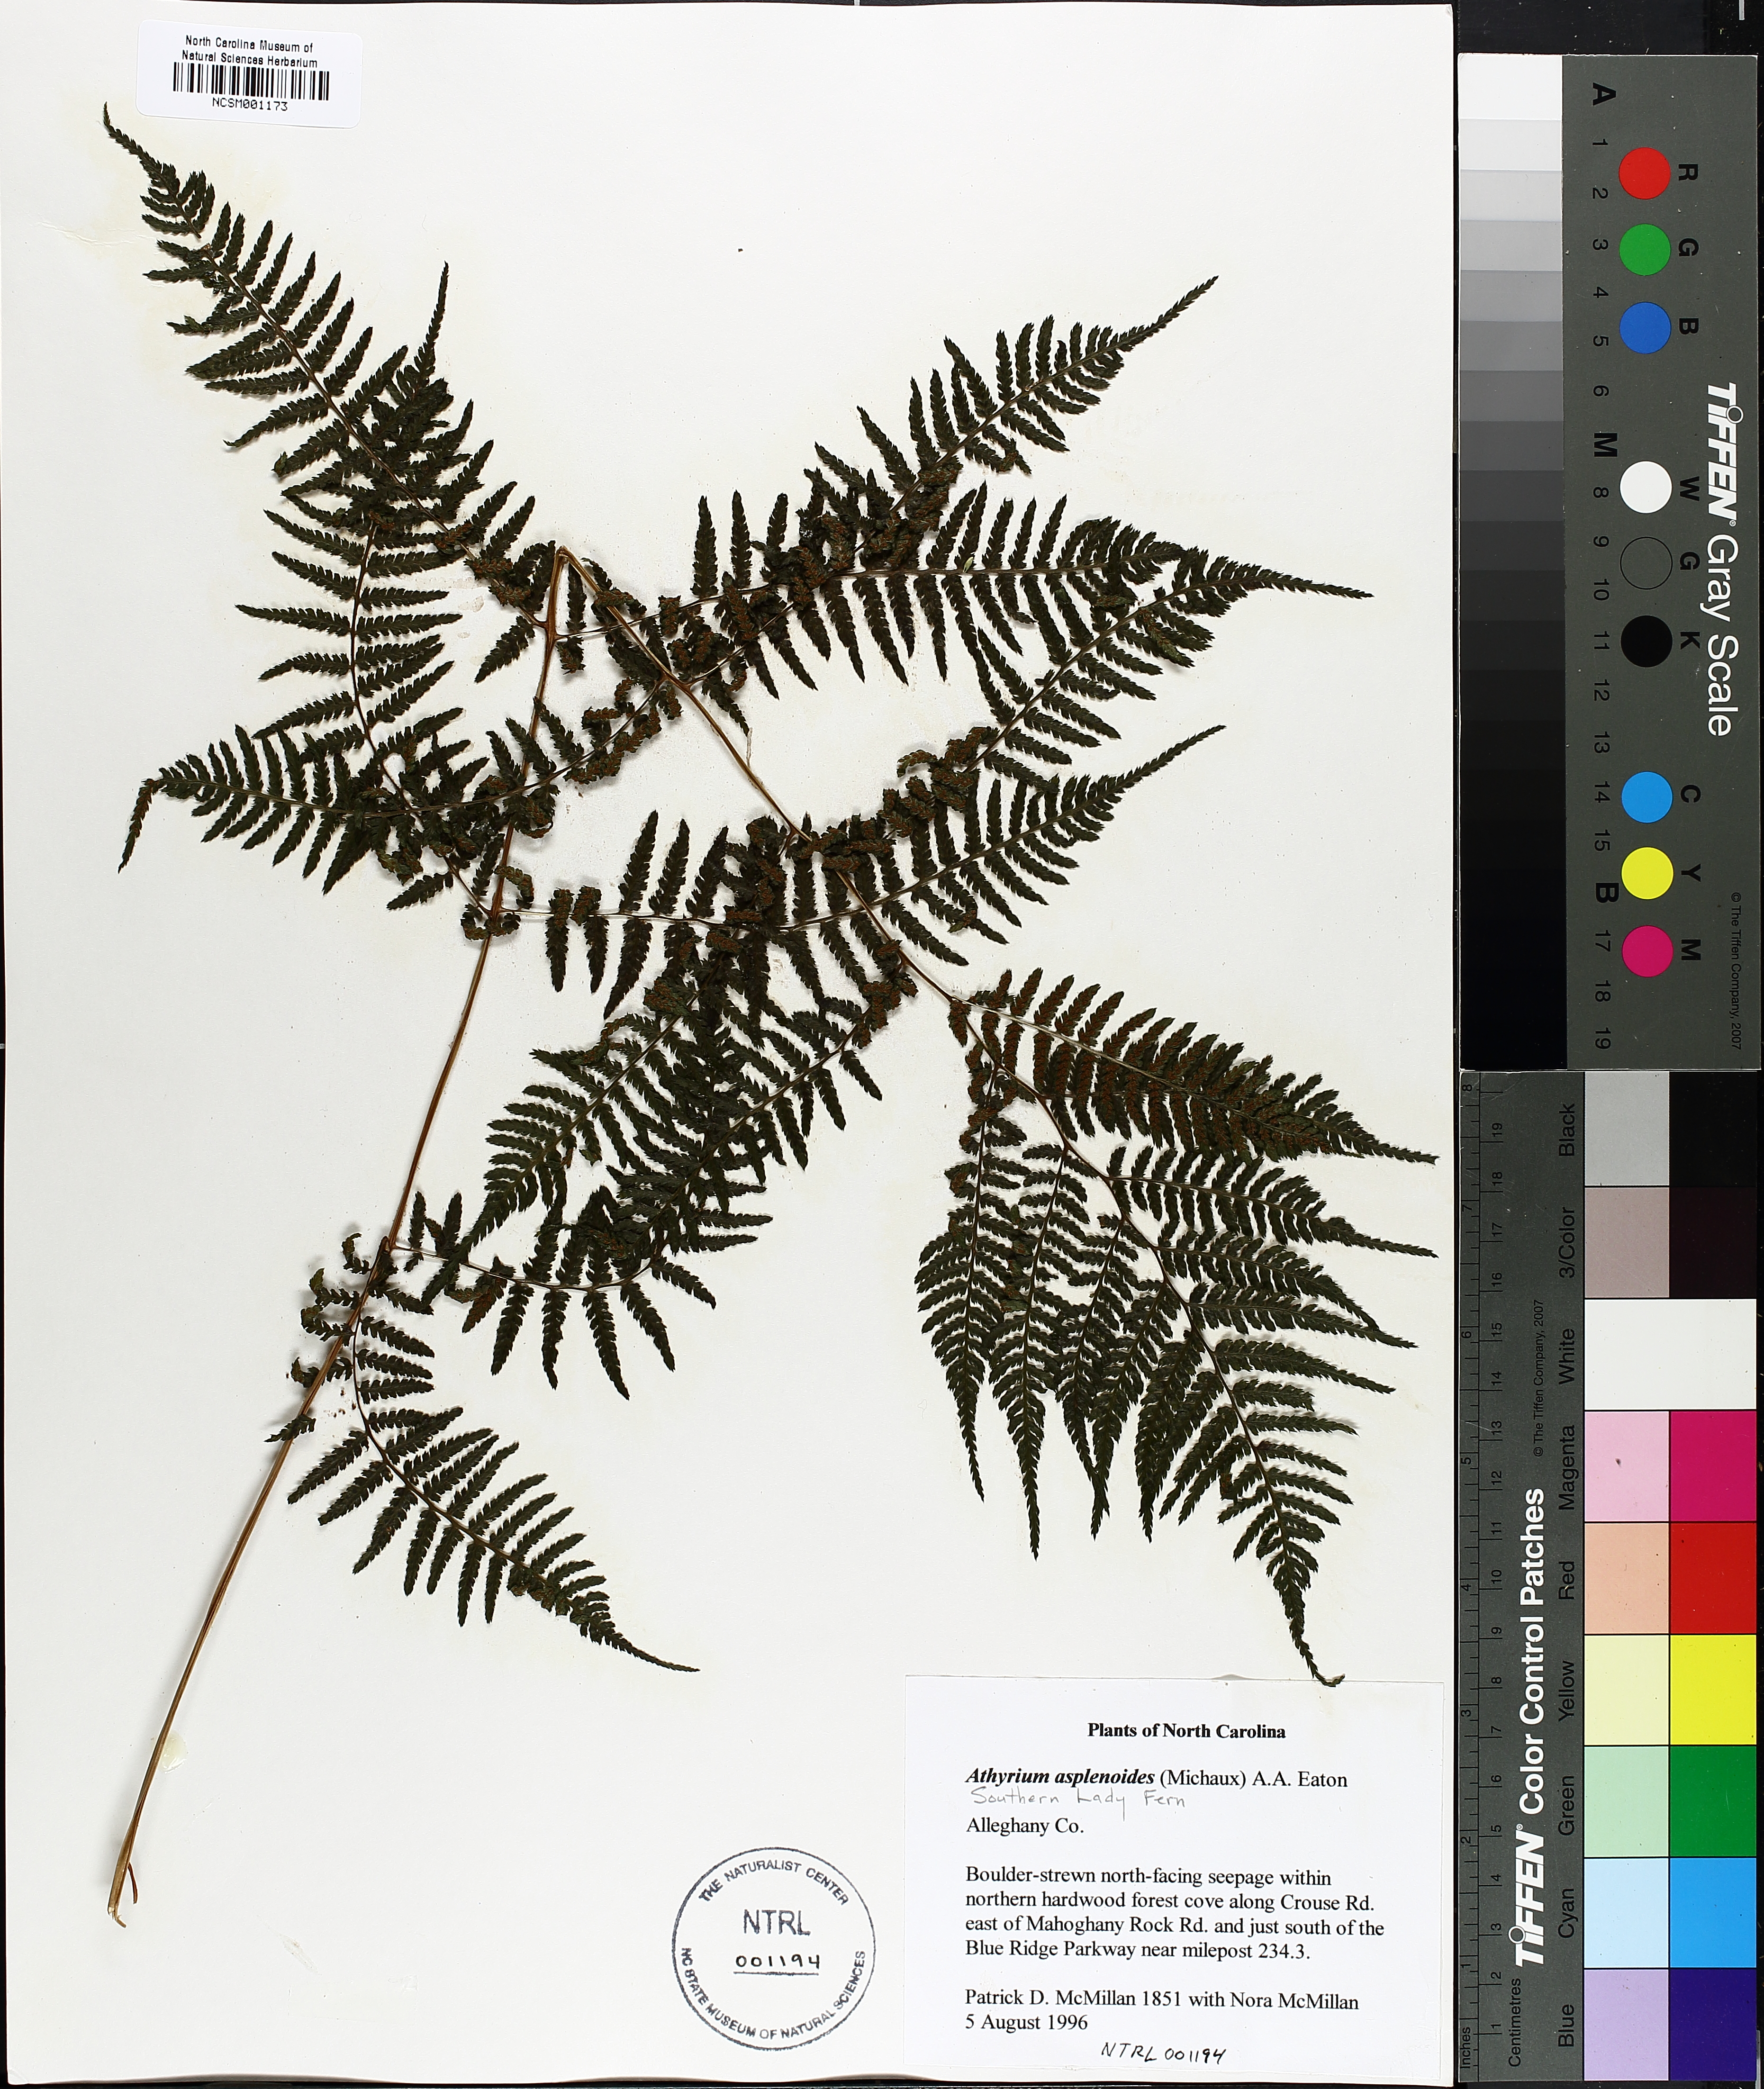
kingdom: Plantae
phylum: Tracheophyta
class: Polypodiopsida
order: Polypodiales
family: Athyriaceae
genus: Athyrium
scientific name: Athyrium asplenioides
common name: Southern lady fern
